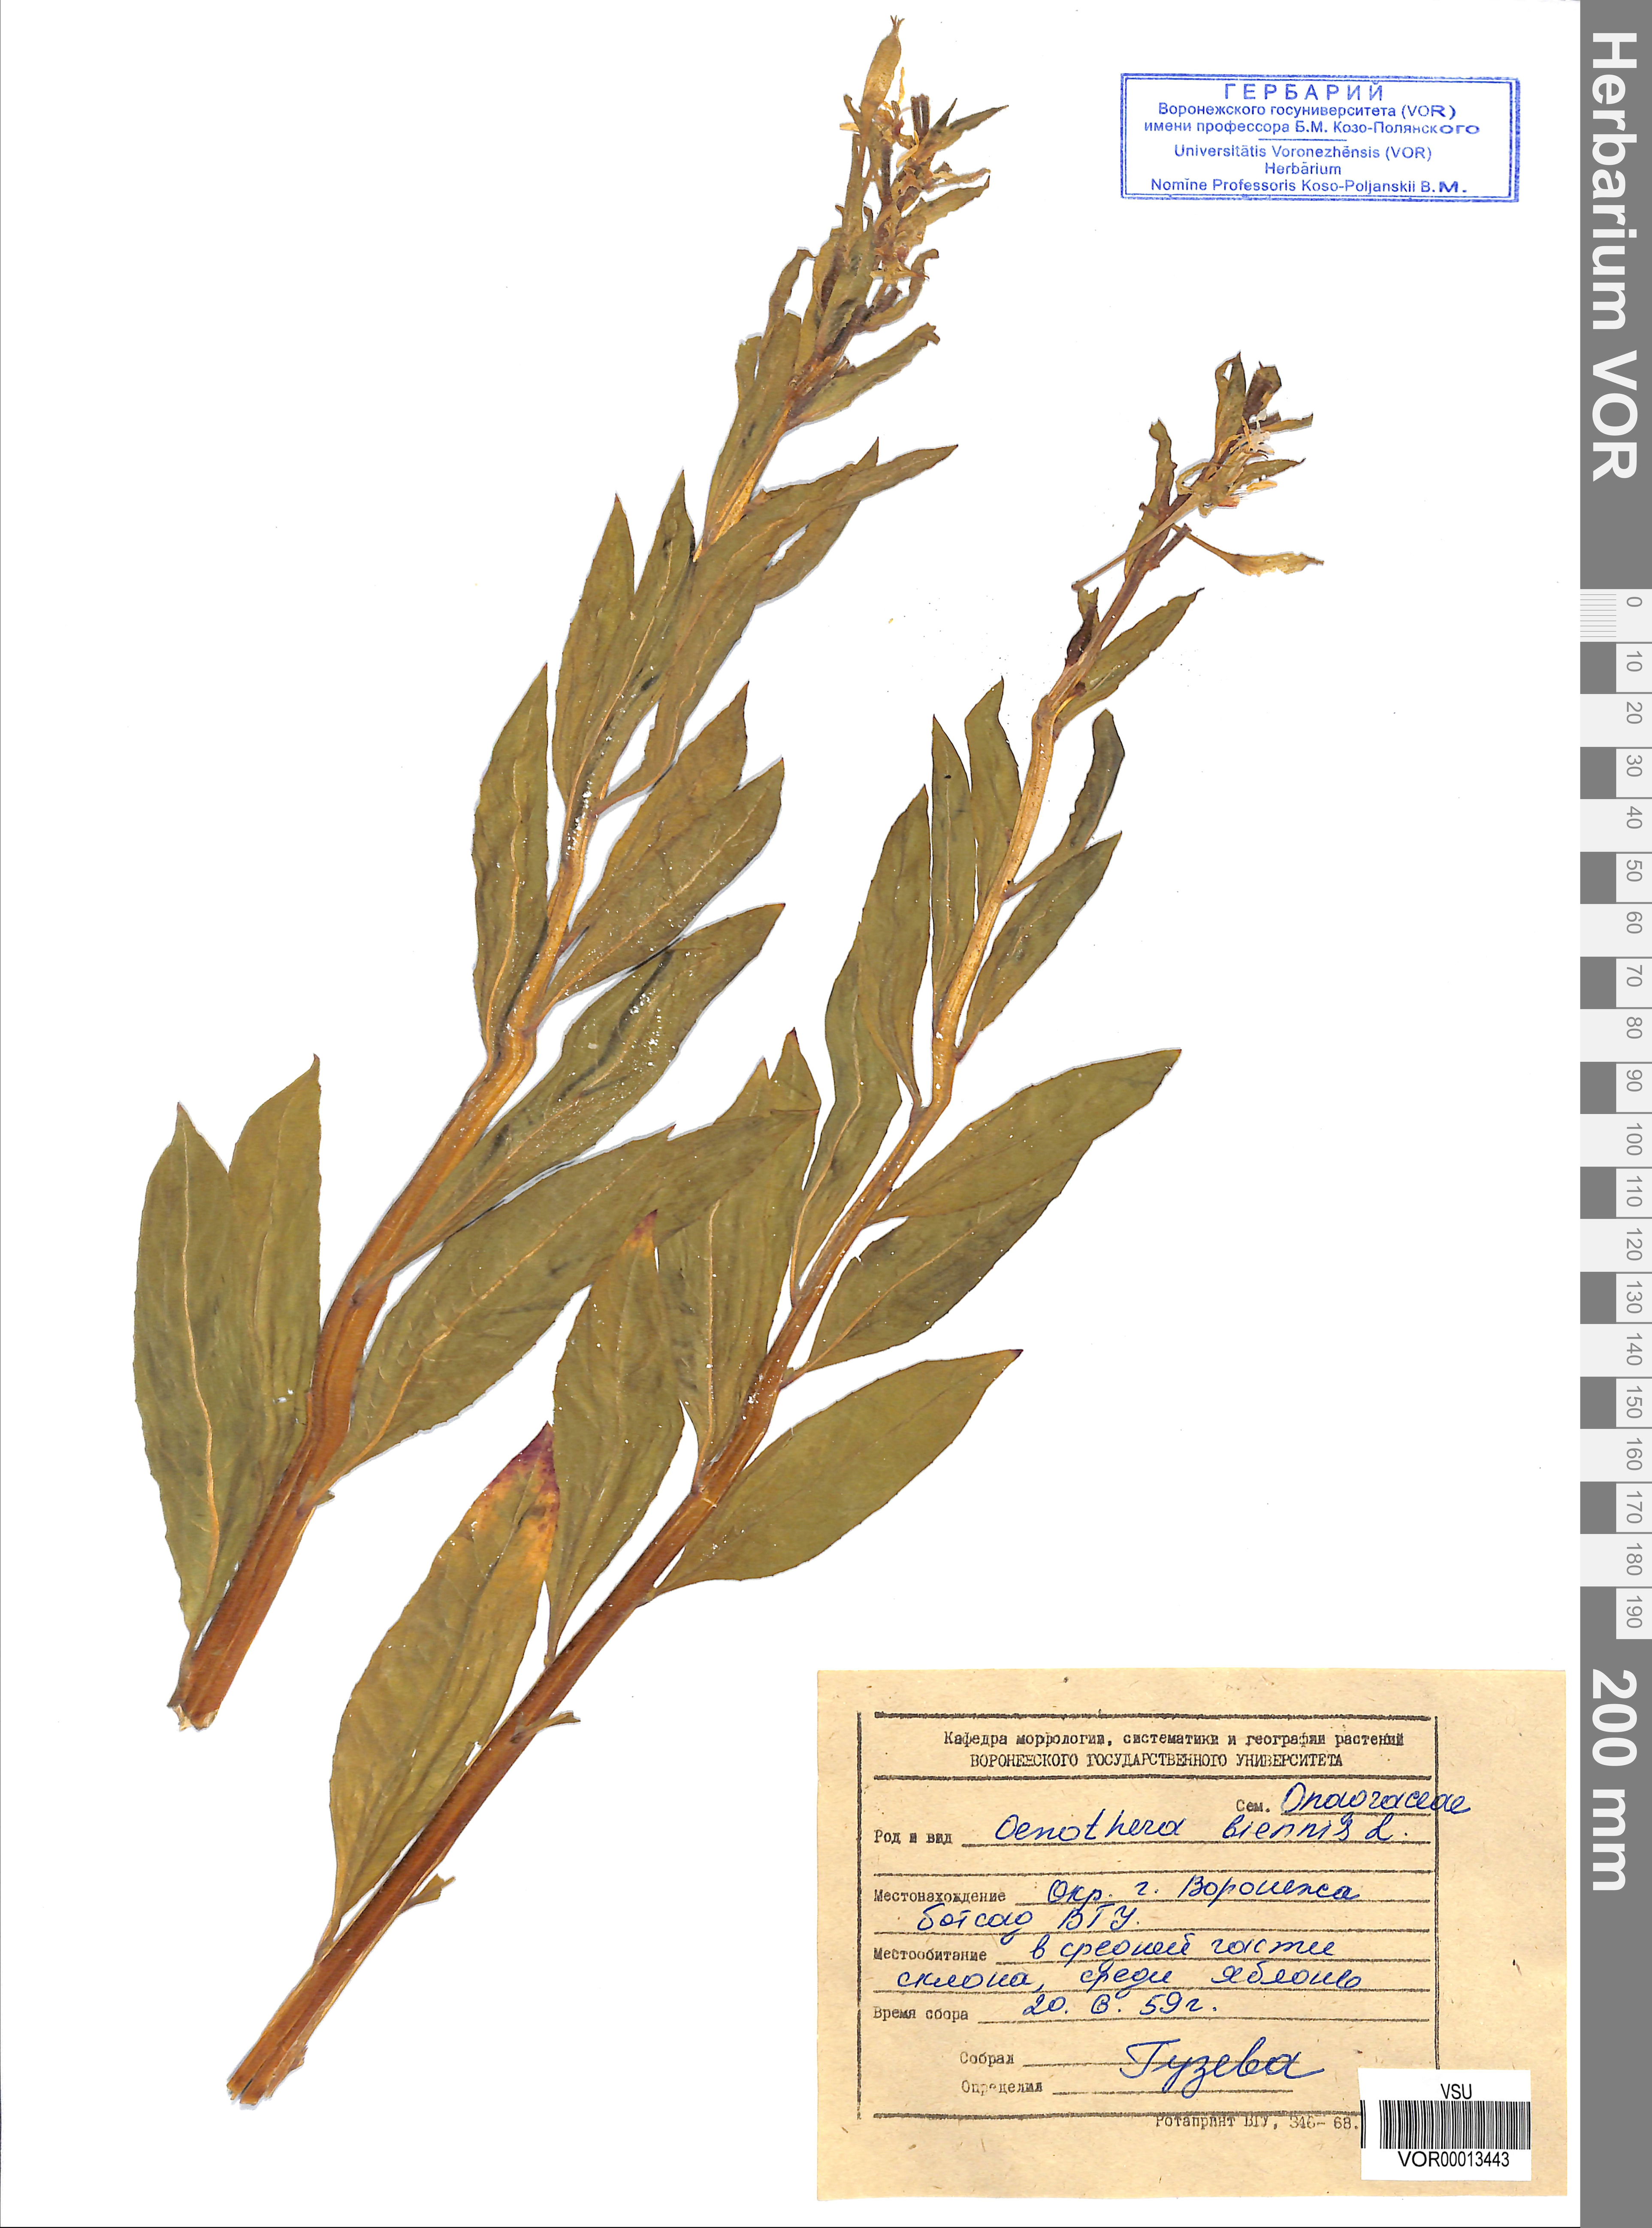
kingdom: Plantae
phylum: Tracheophyta
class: Magnoliopsida
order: Myrtales
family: Onagraceae
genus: Oenothera
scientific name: Oenothera biennis
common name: Common evening-primrose
